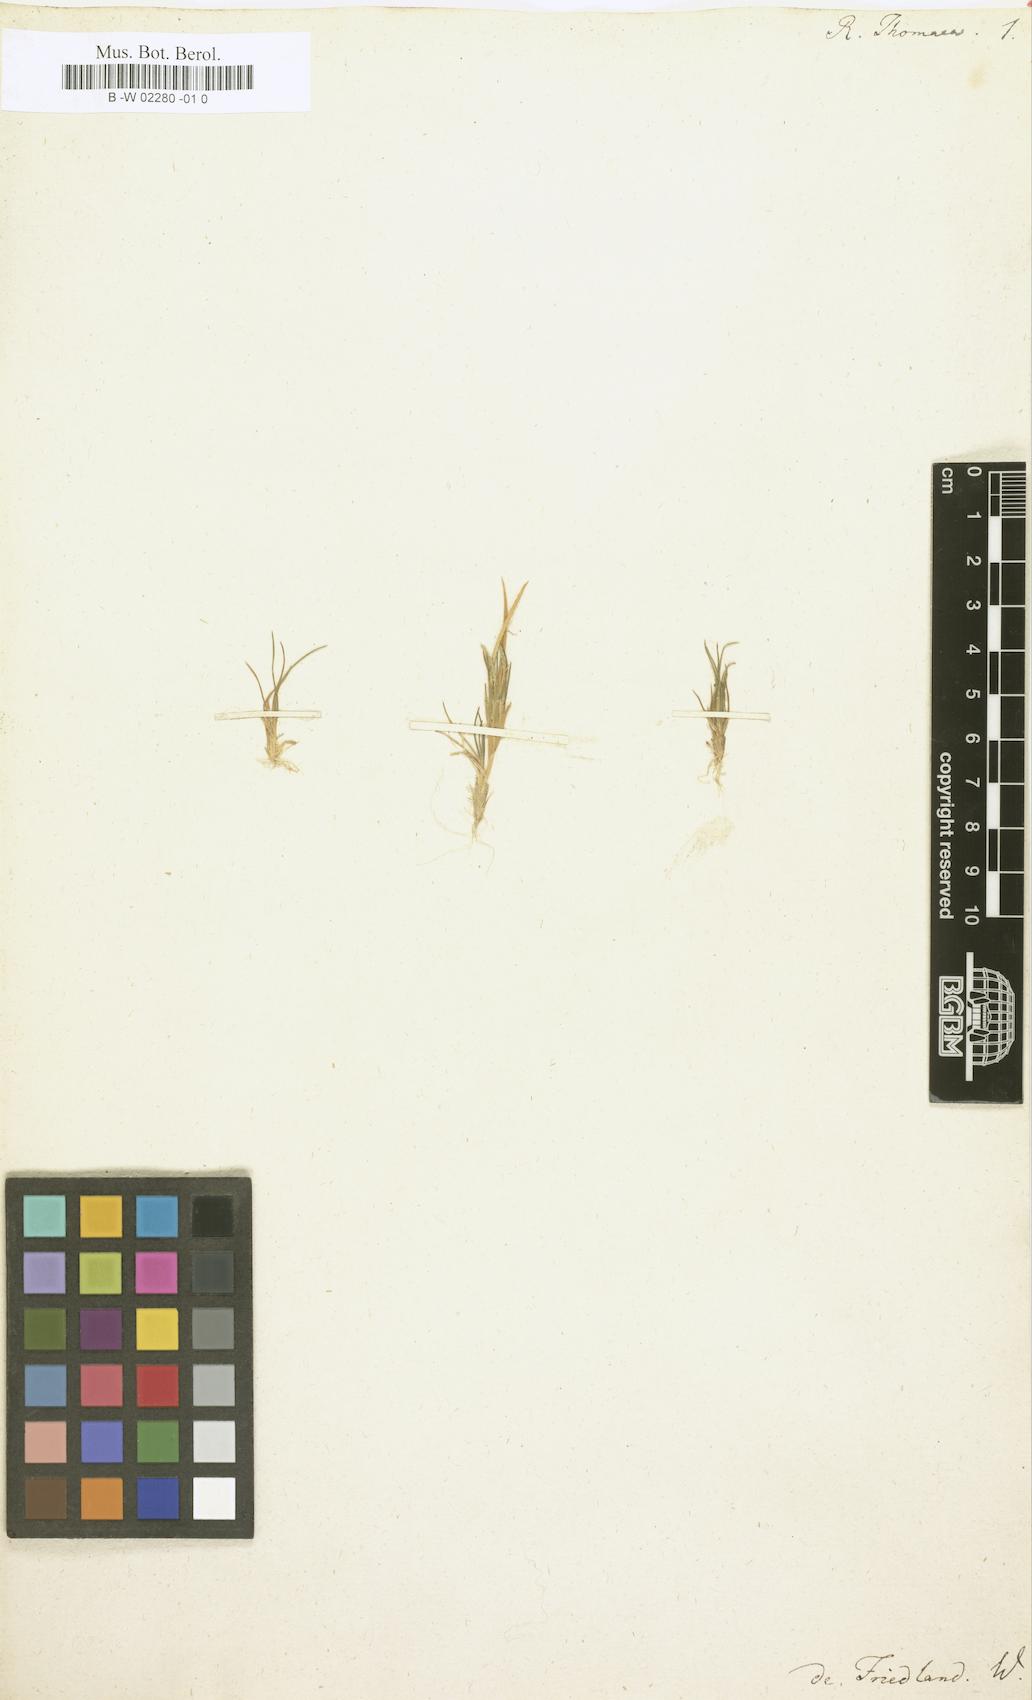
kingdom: Plantae
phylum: Tracheophyta
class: Liliopsida
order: Poales
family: Poaceae
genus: Rottboellia
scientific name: Rottboellia thomaea
